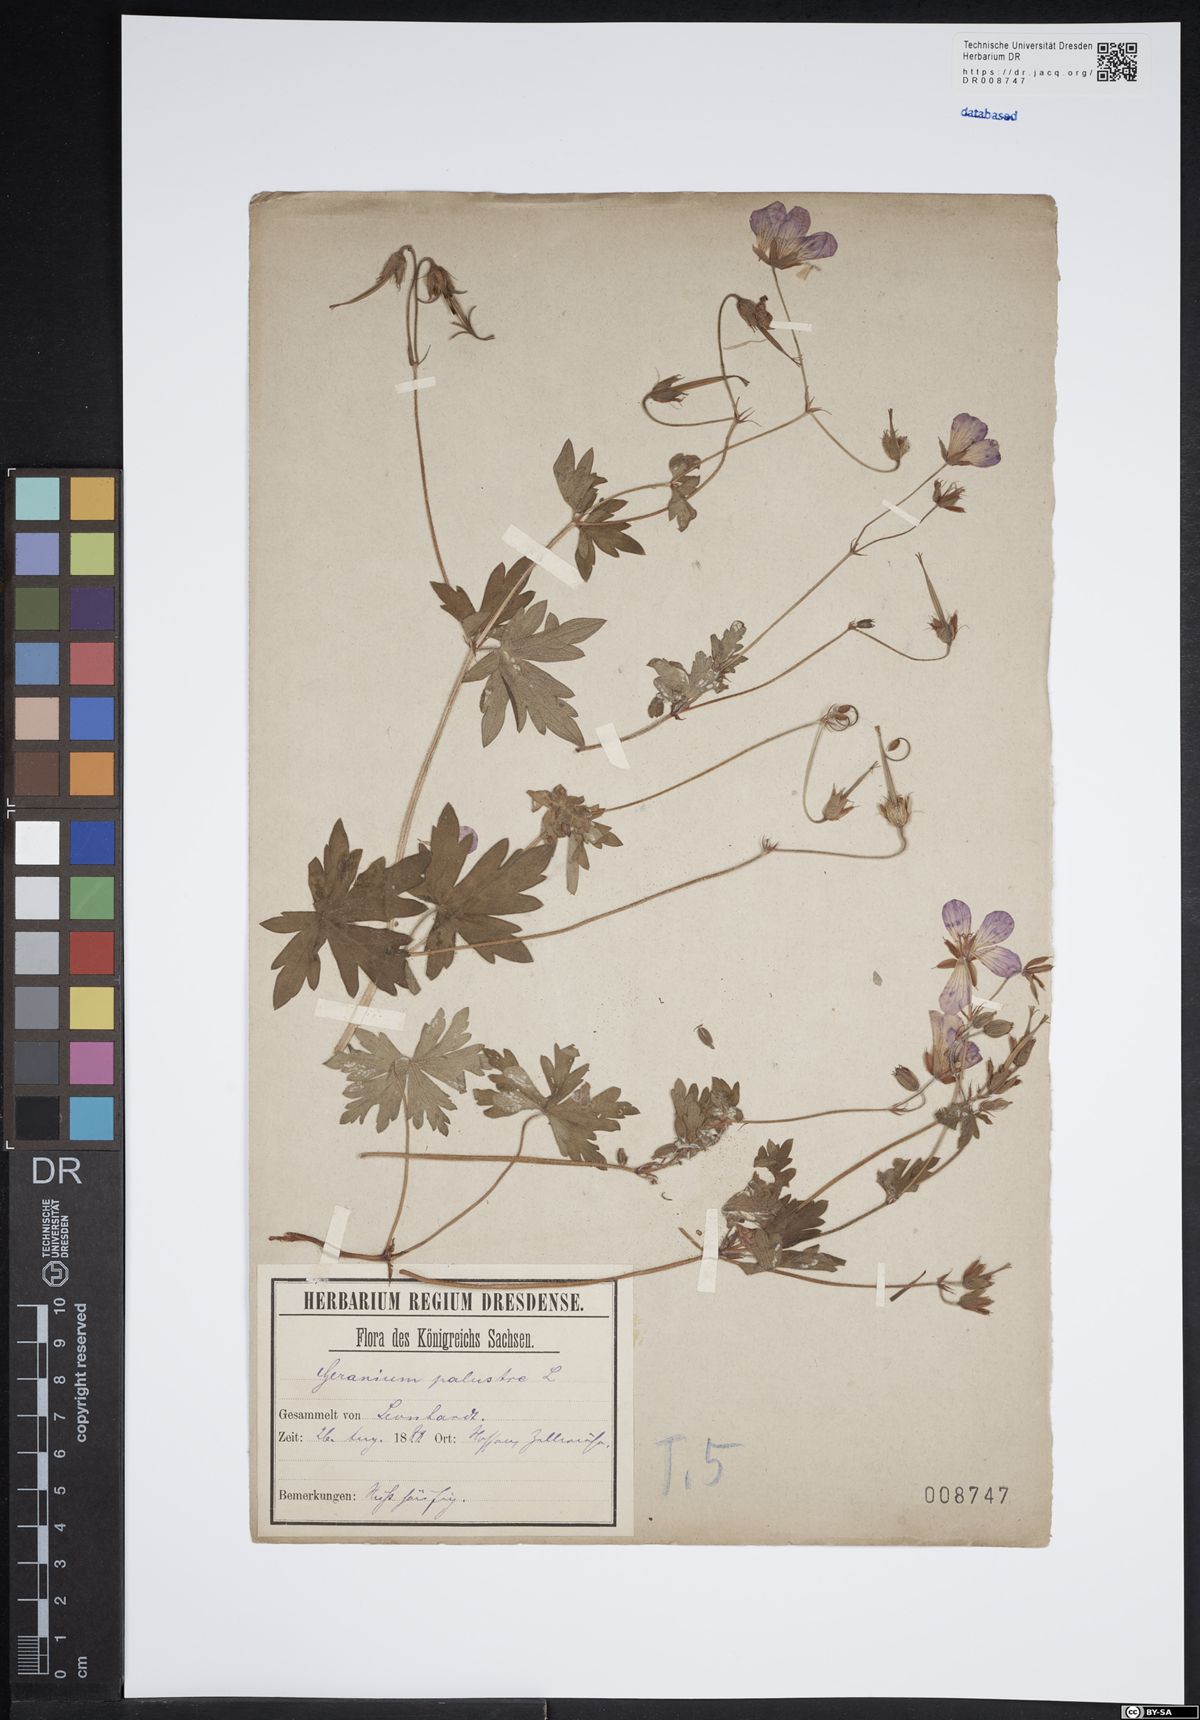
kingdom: Plantae
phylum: Tracheophyta
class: Magnoliopsida
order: Geraniales
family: Geraniaceae
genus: Geranium
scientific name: Geranium palustre
